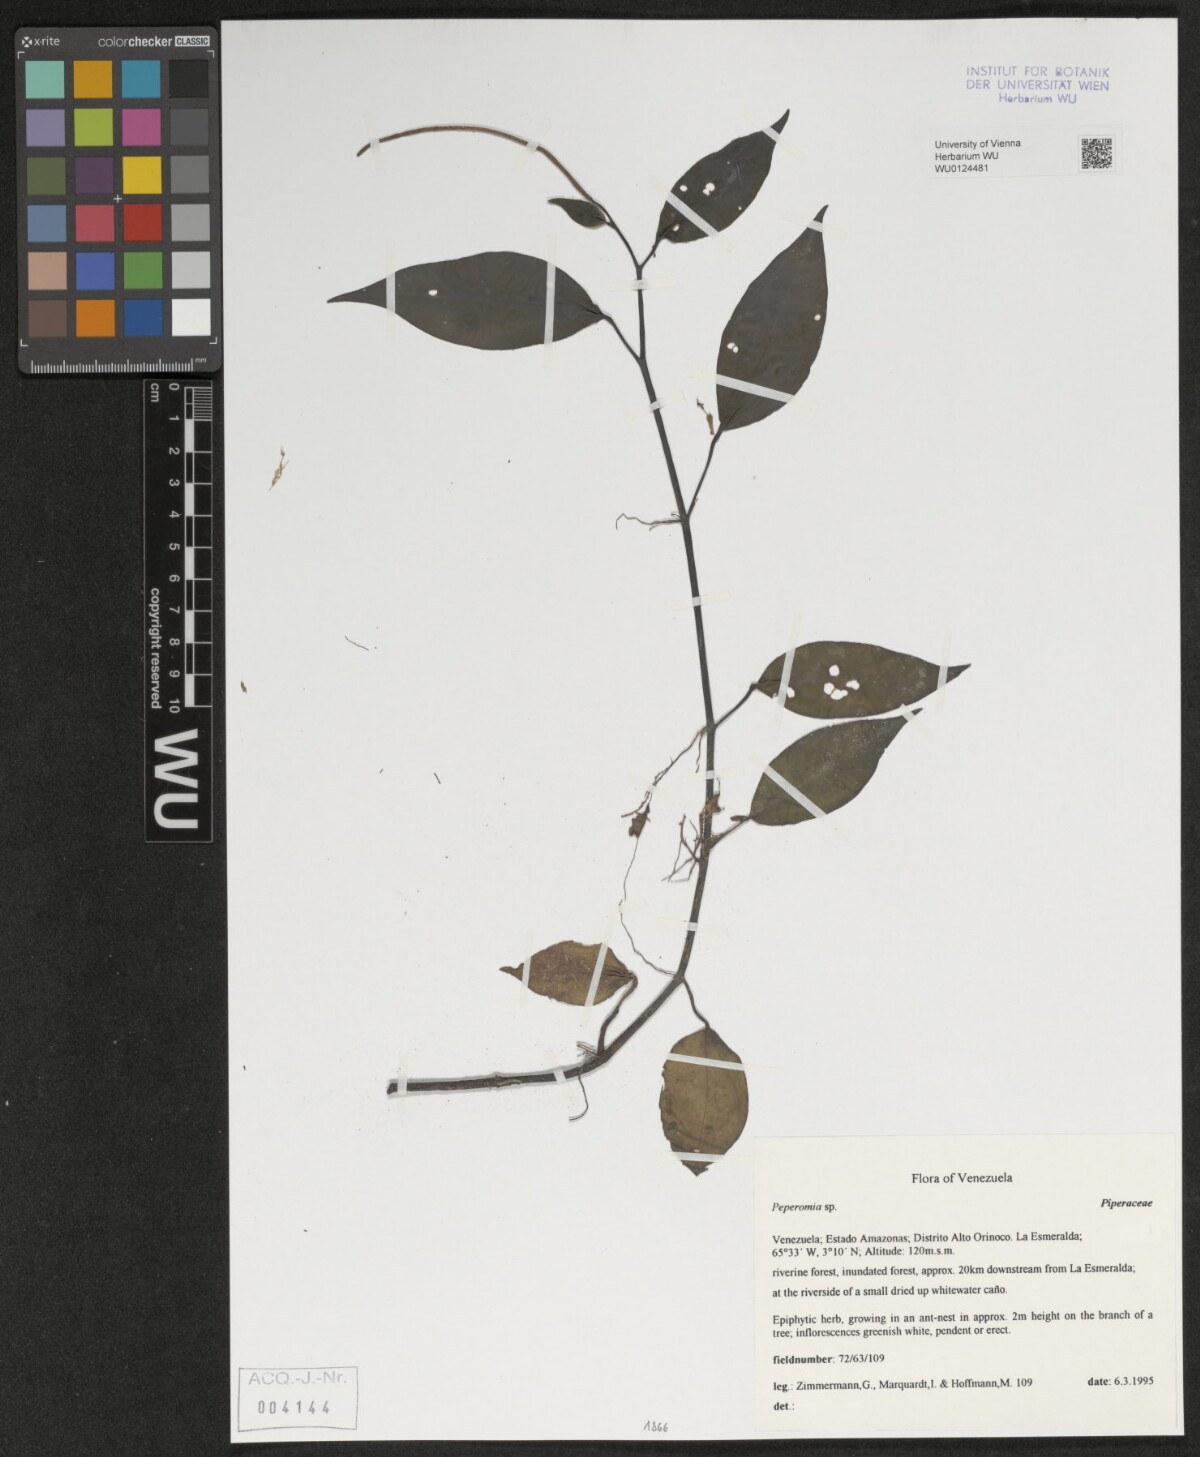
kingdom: Plantae
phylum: Tracheophyta
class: Magnoliopsida
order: Piperales
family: Piperaceae
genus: Peperomia
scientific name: Peperomia
